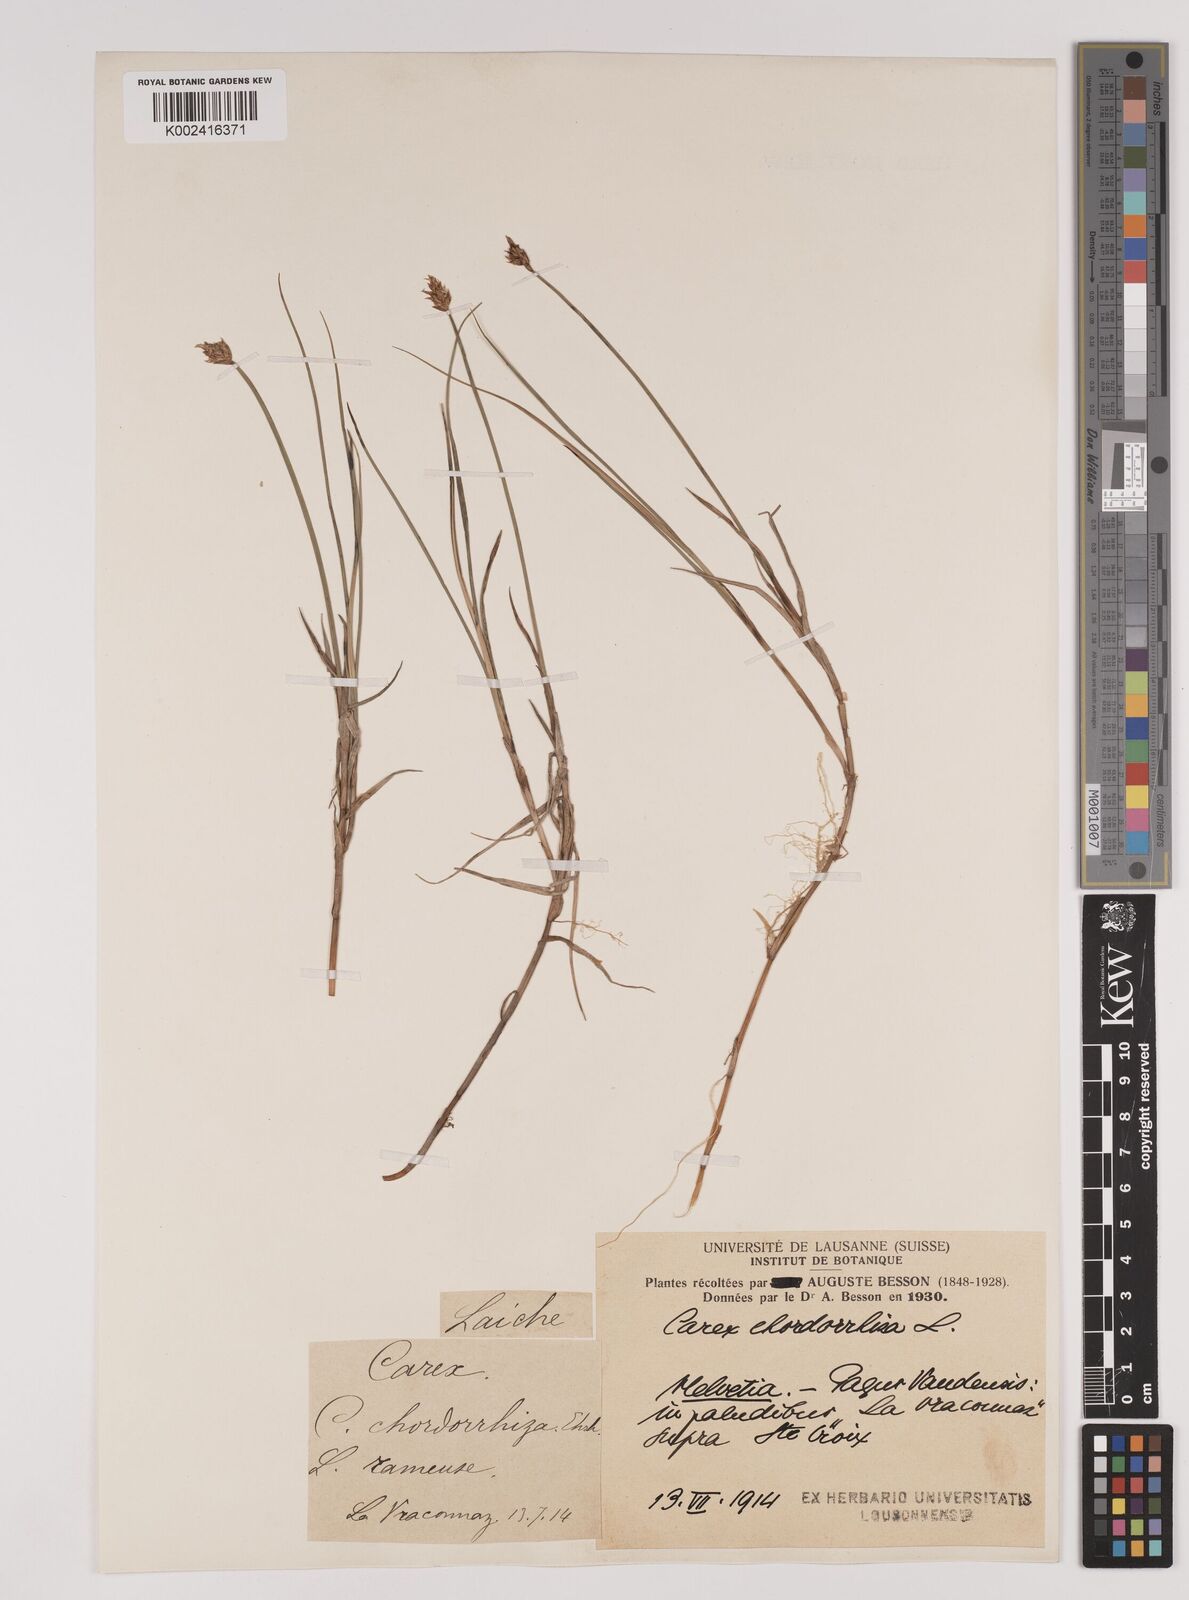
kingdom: Plantae
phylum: Tracheophyta
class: Liliopsida
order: Poales
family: Cyperaceae
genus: Carex
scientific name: Carex chordorrhiza
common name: String sedge
